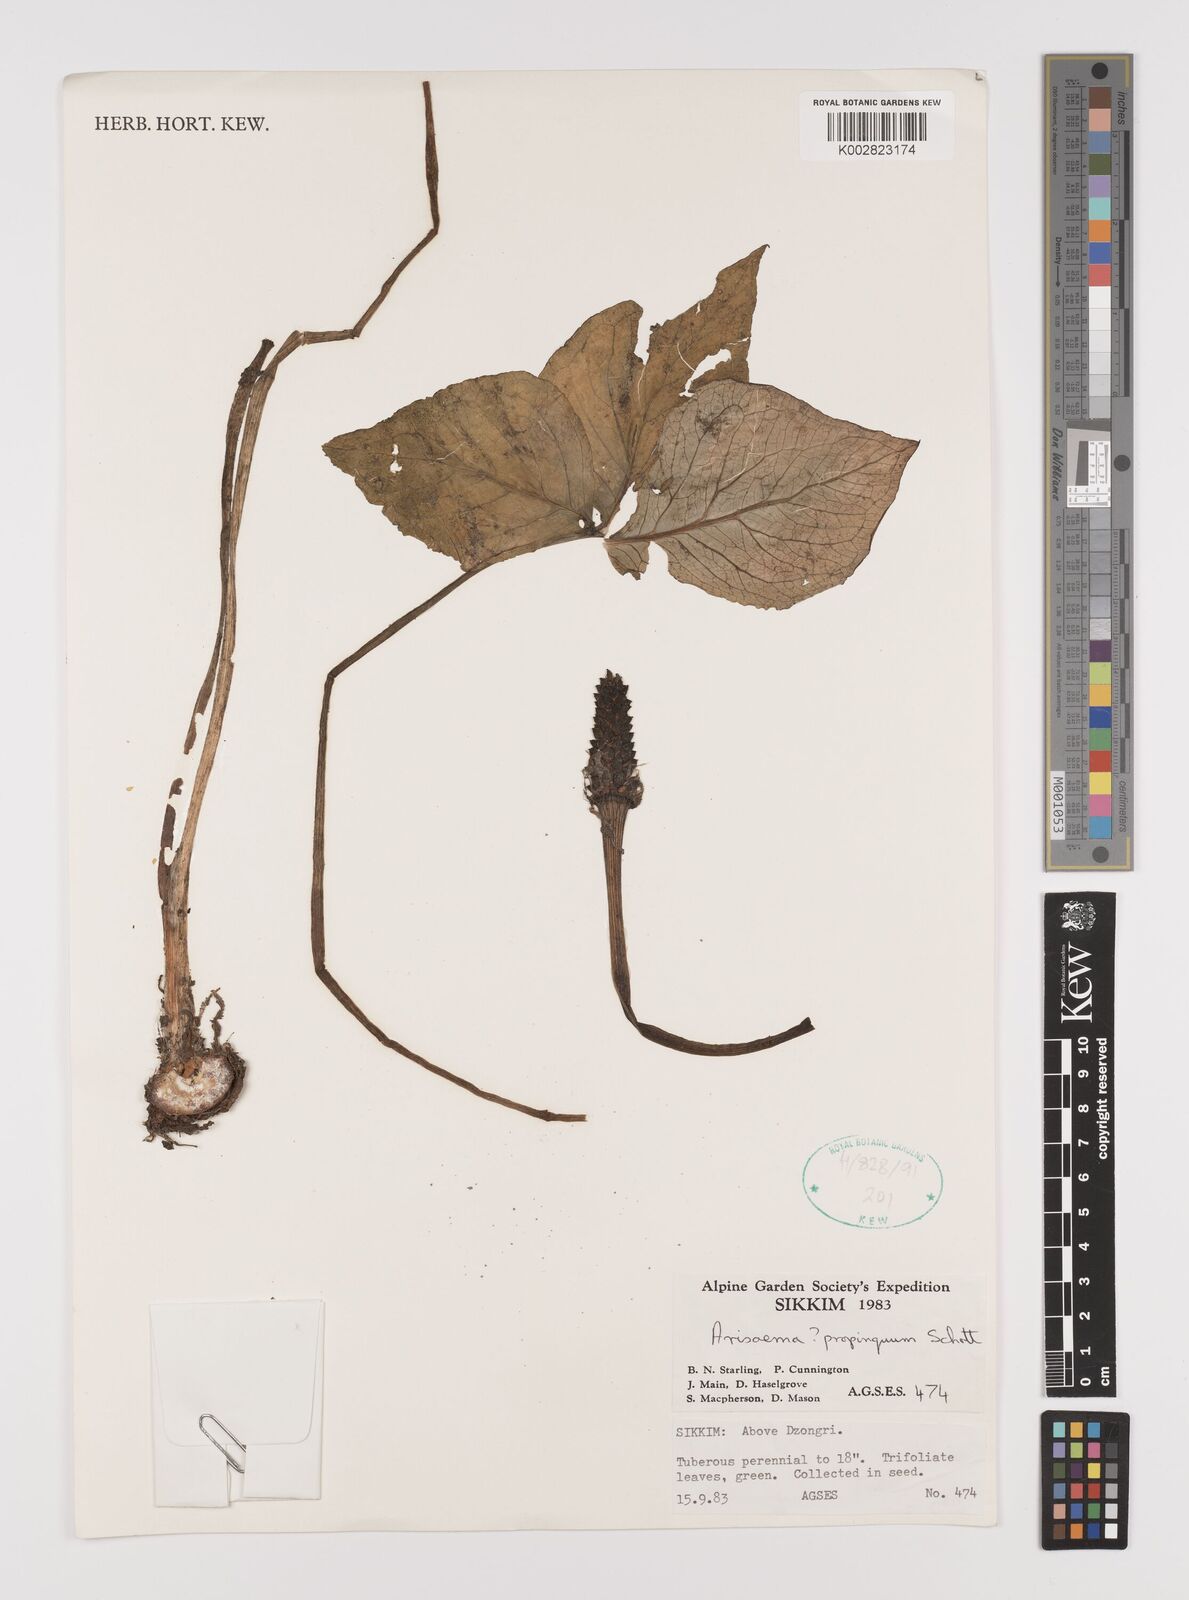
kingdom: Plantae
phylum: Tracheophyta
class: Liliopsida
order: Alismatales
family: Araceae
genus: Arisaema
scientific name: Arisaema propinquum
